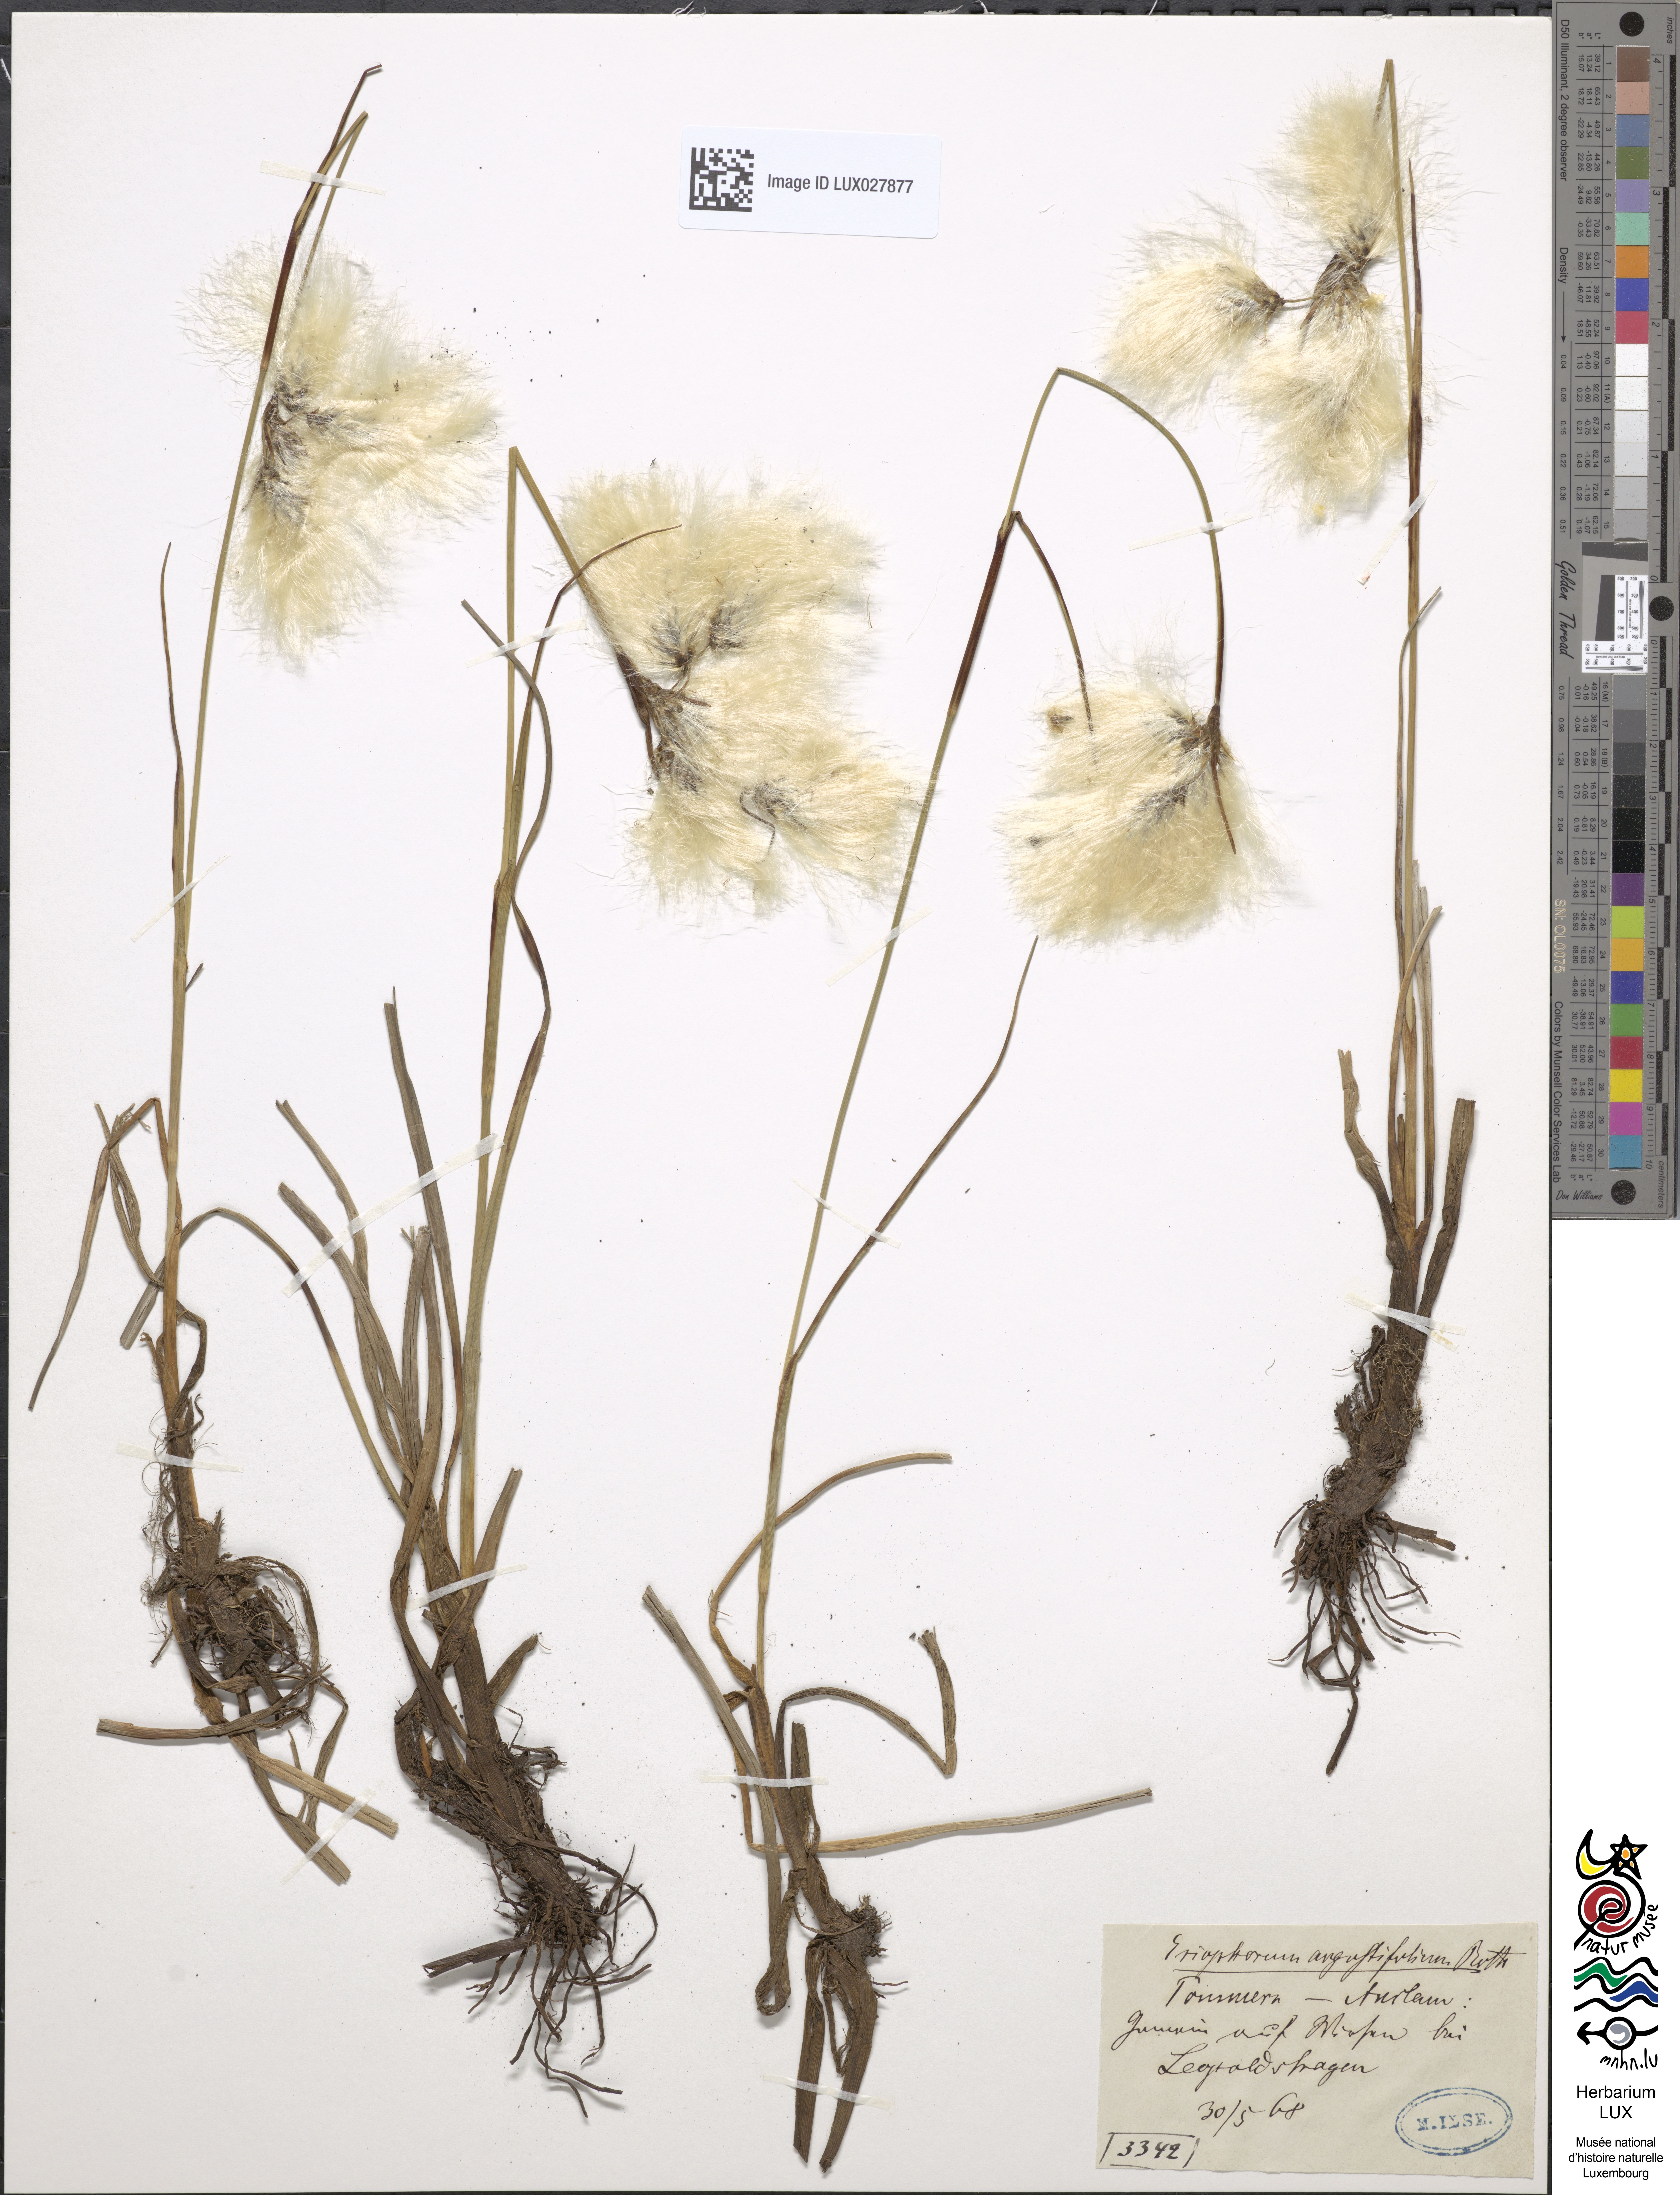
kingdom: Plantae
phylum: Tracheophyta
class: Liliopsida
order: Poales
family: Cyperaceae
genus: Eriophorum
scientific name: Eriophorum angustifolium
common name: Common cottongrass
